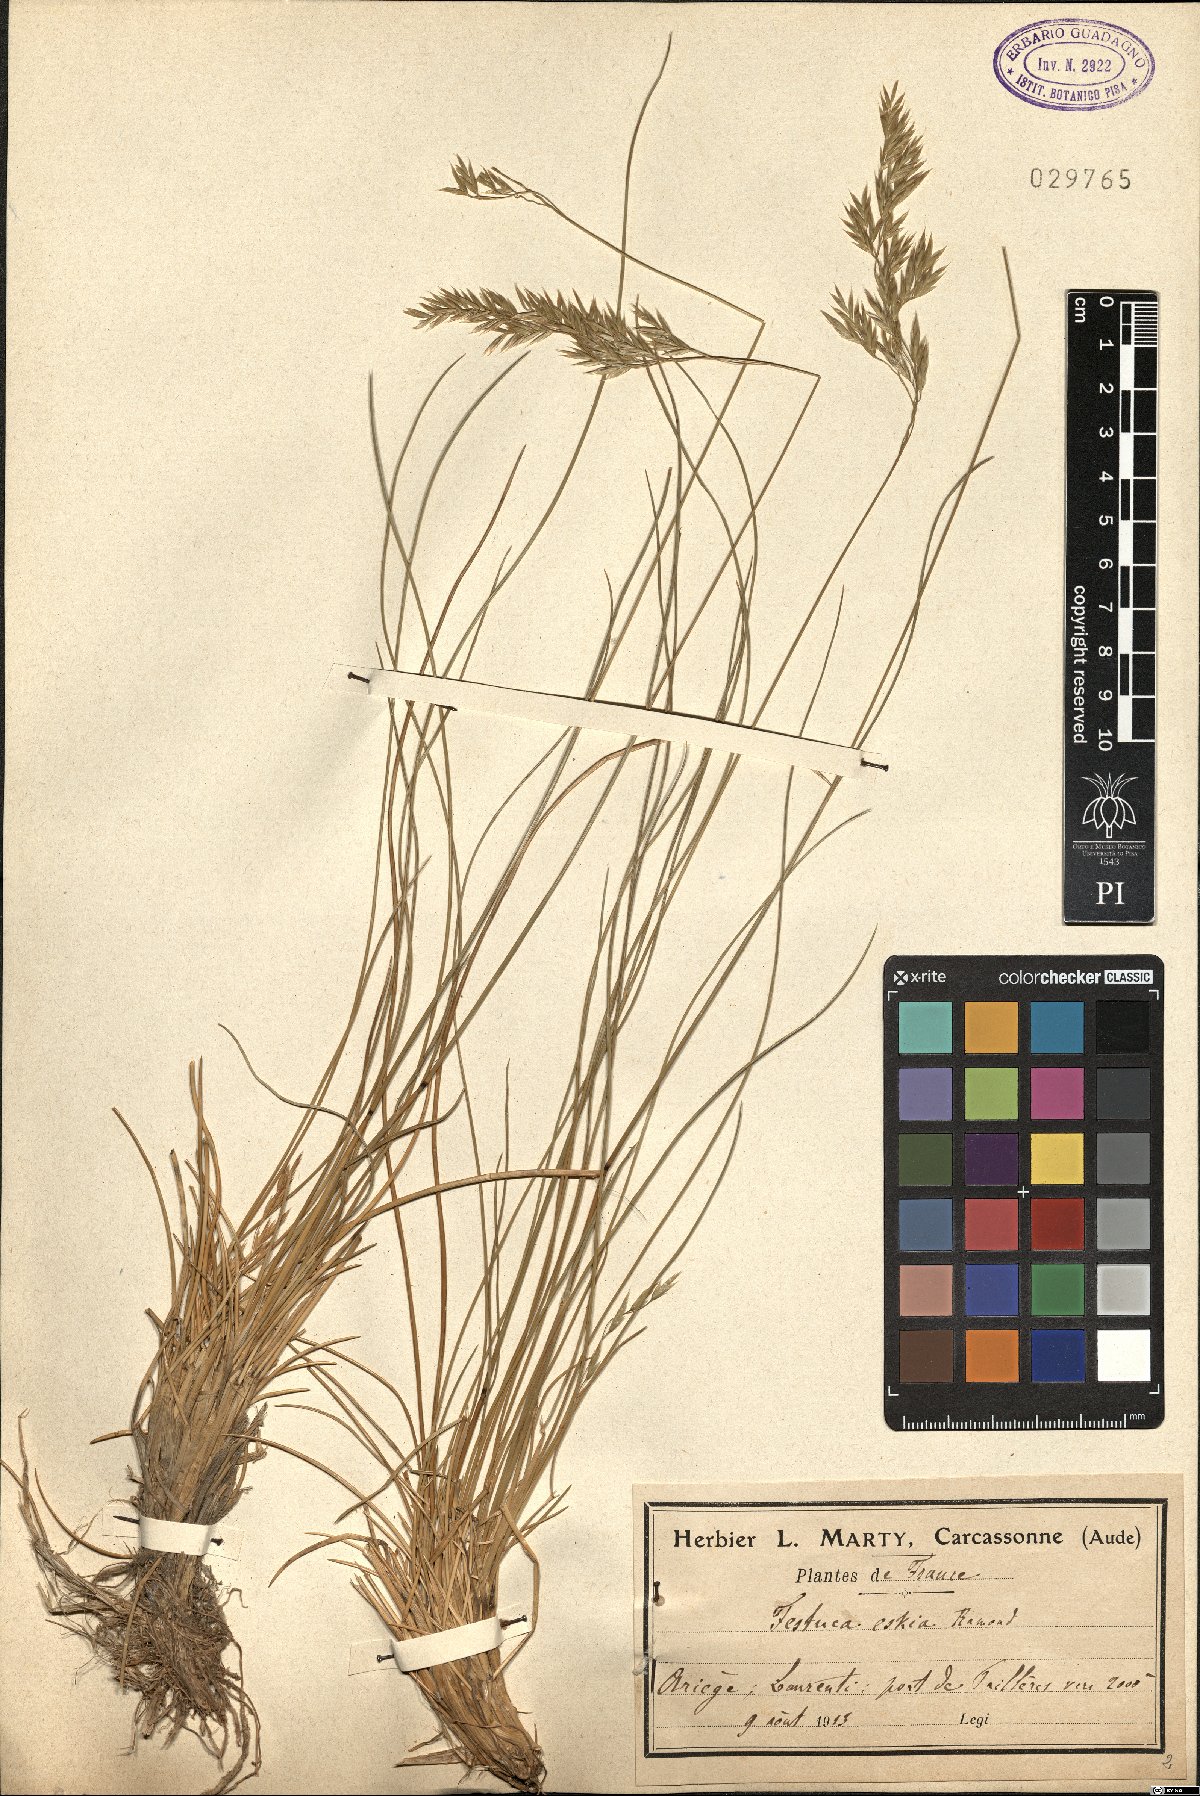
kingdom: Plantae
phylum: Tracheophyta
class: Liliopsida
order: Poales
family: Poaceae
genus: Festuca
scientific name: Festuca eskia
